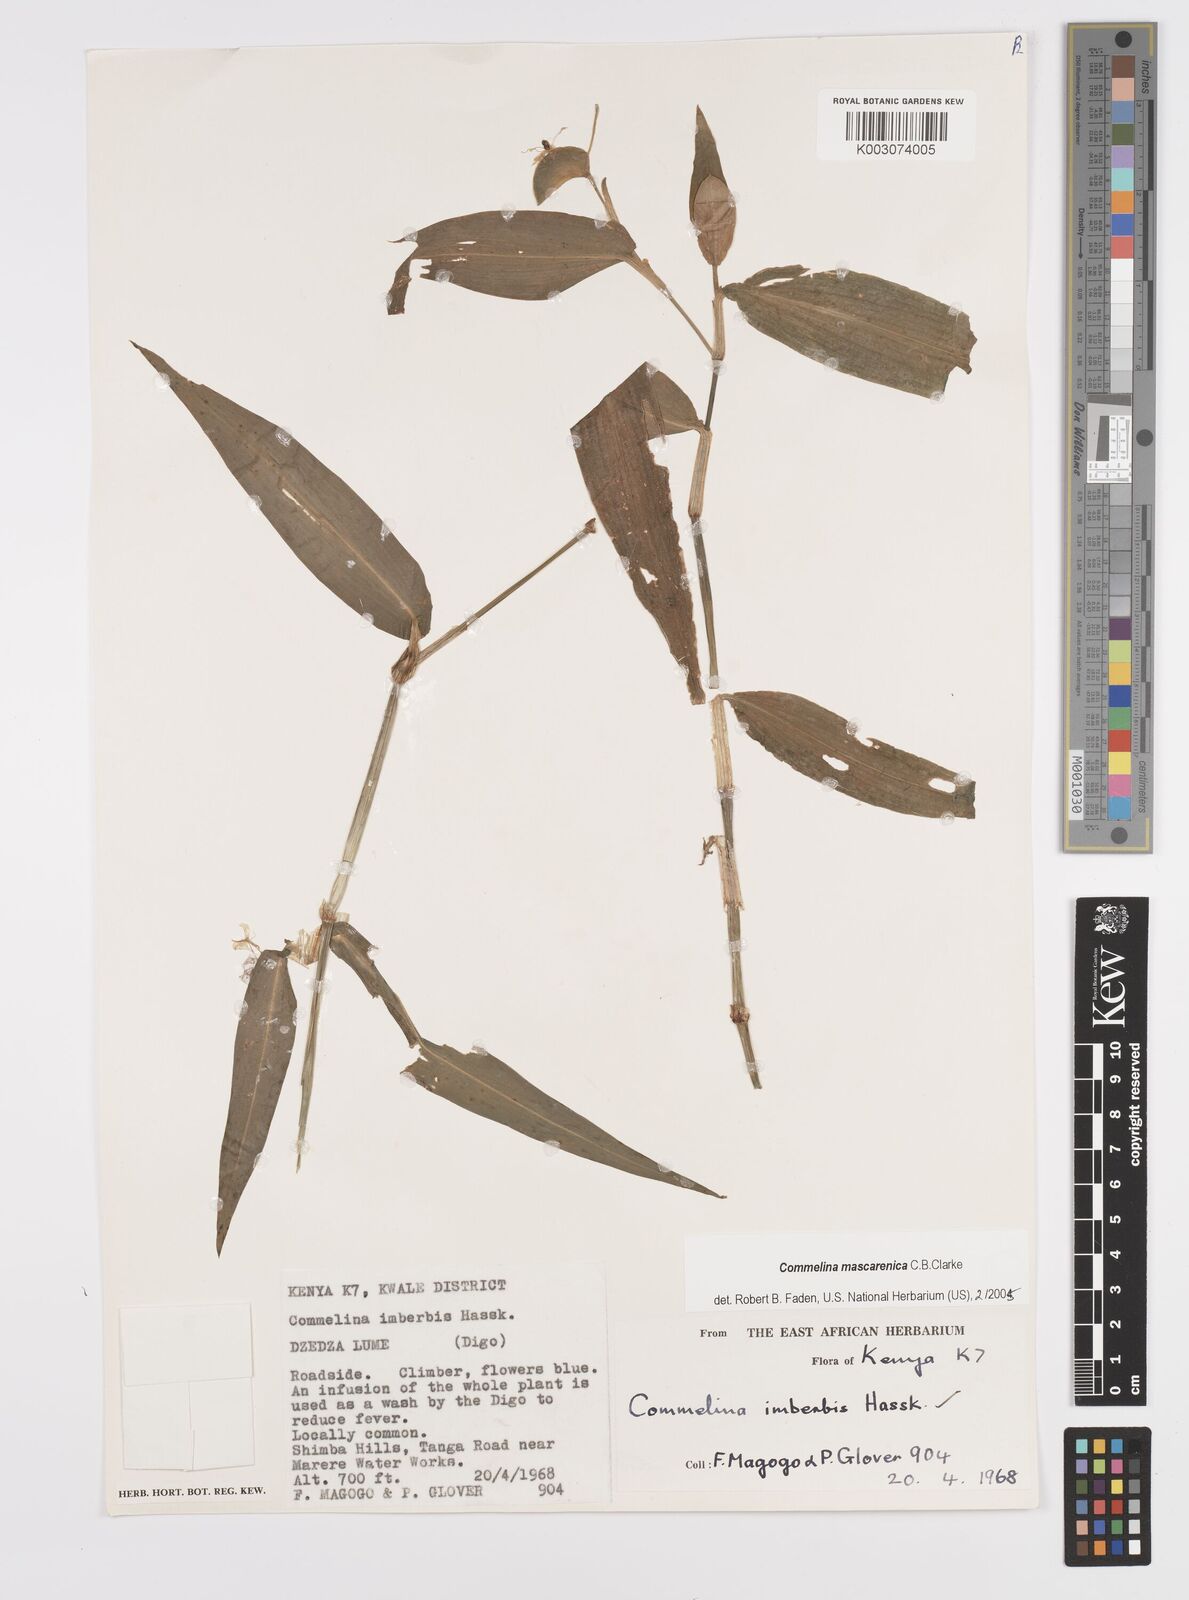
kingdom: Plantae
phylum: Tracheophyta
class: Liliopsida
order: Commelinales
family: Commelinaceae
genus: Commelina
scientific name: Commelina mascarenica
